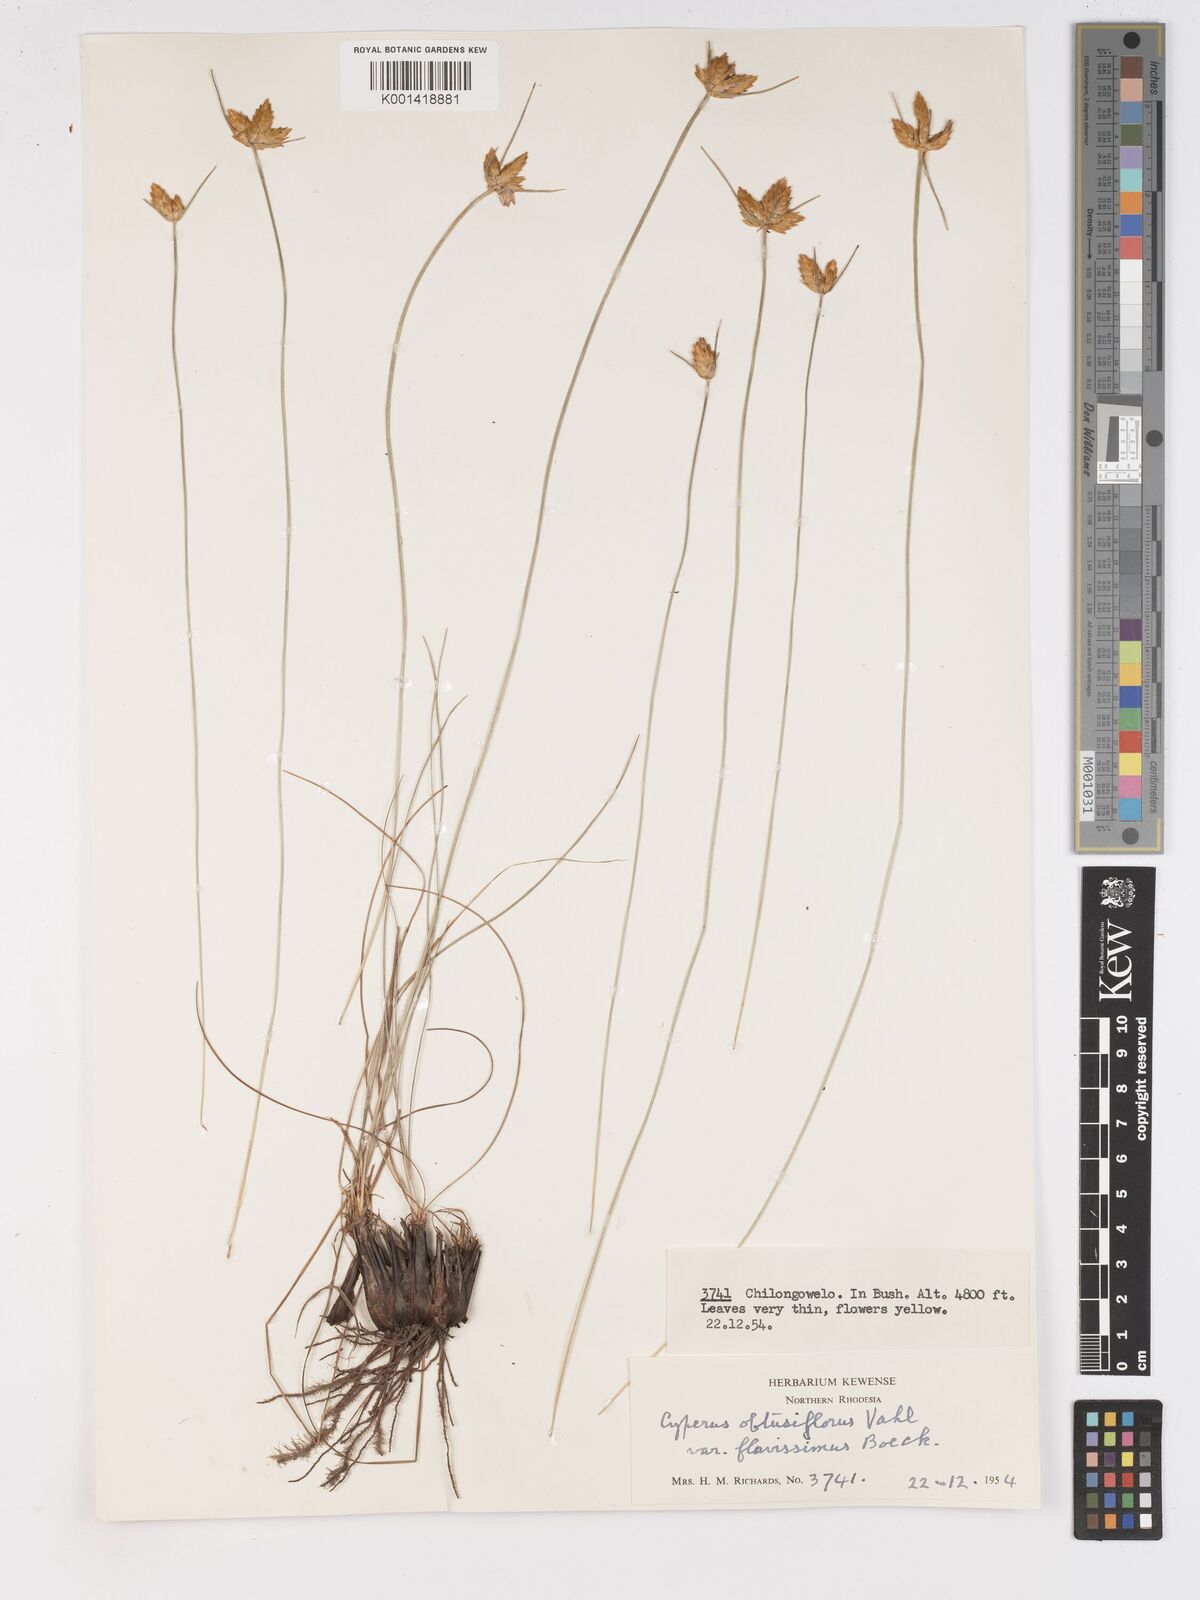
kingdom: Plantae
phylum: Tracheophyta
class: Liliopsida
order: Poales
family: Cyperaceae
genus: Cyperus
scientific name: Cyperus sphaerocephalus
